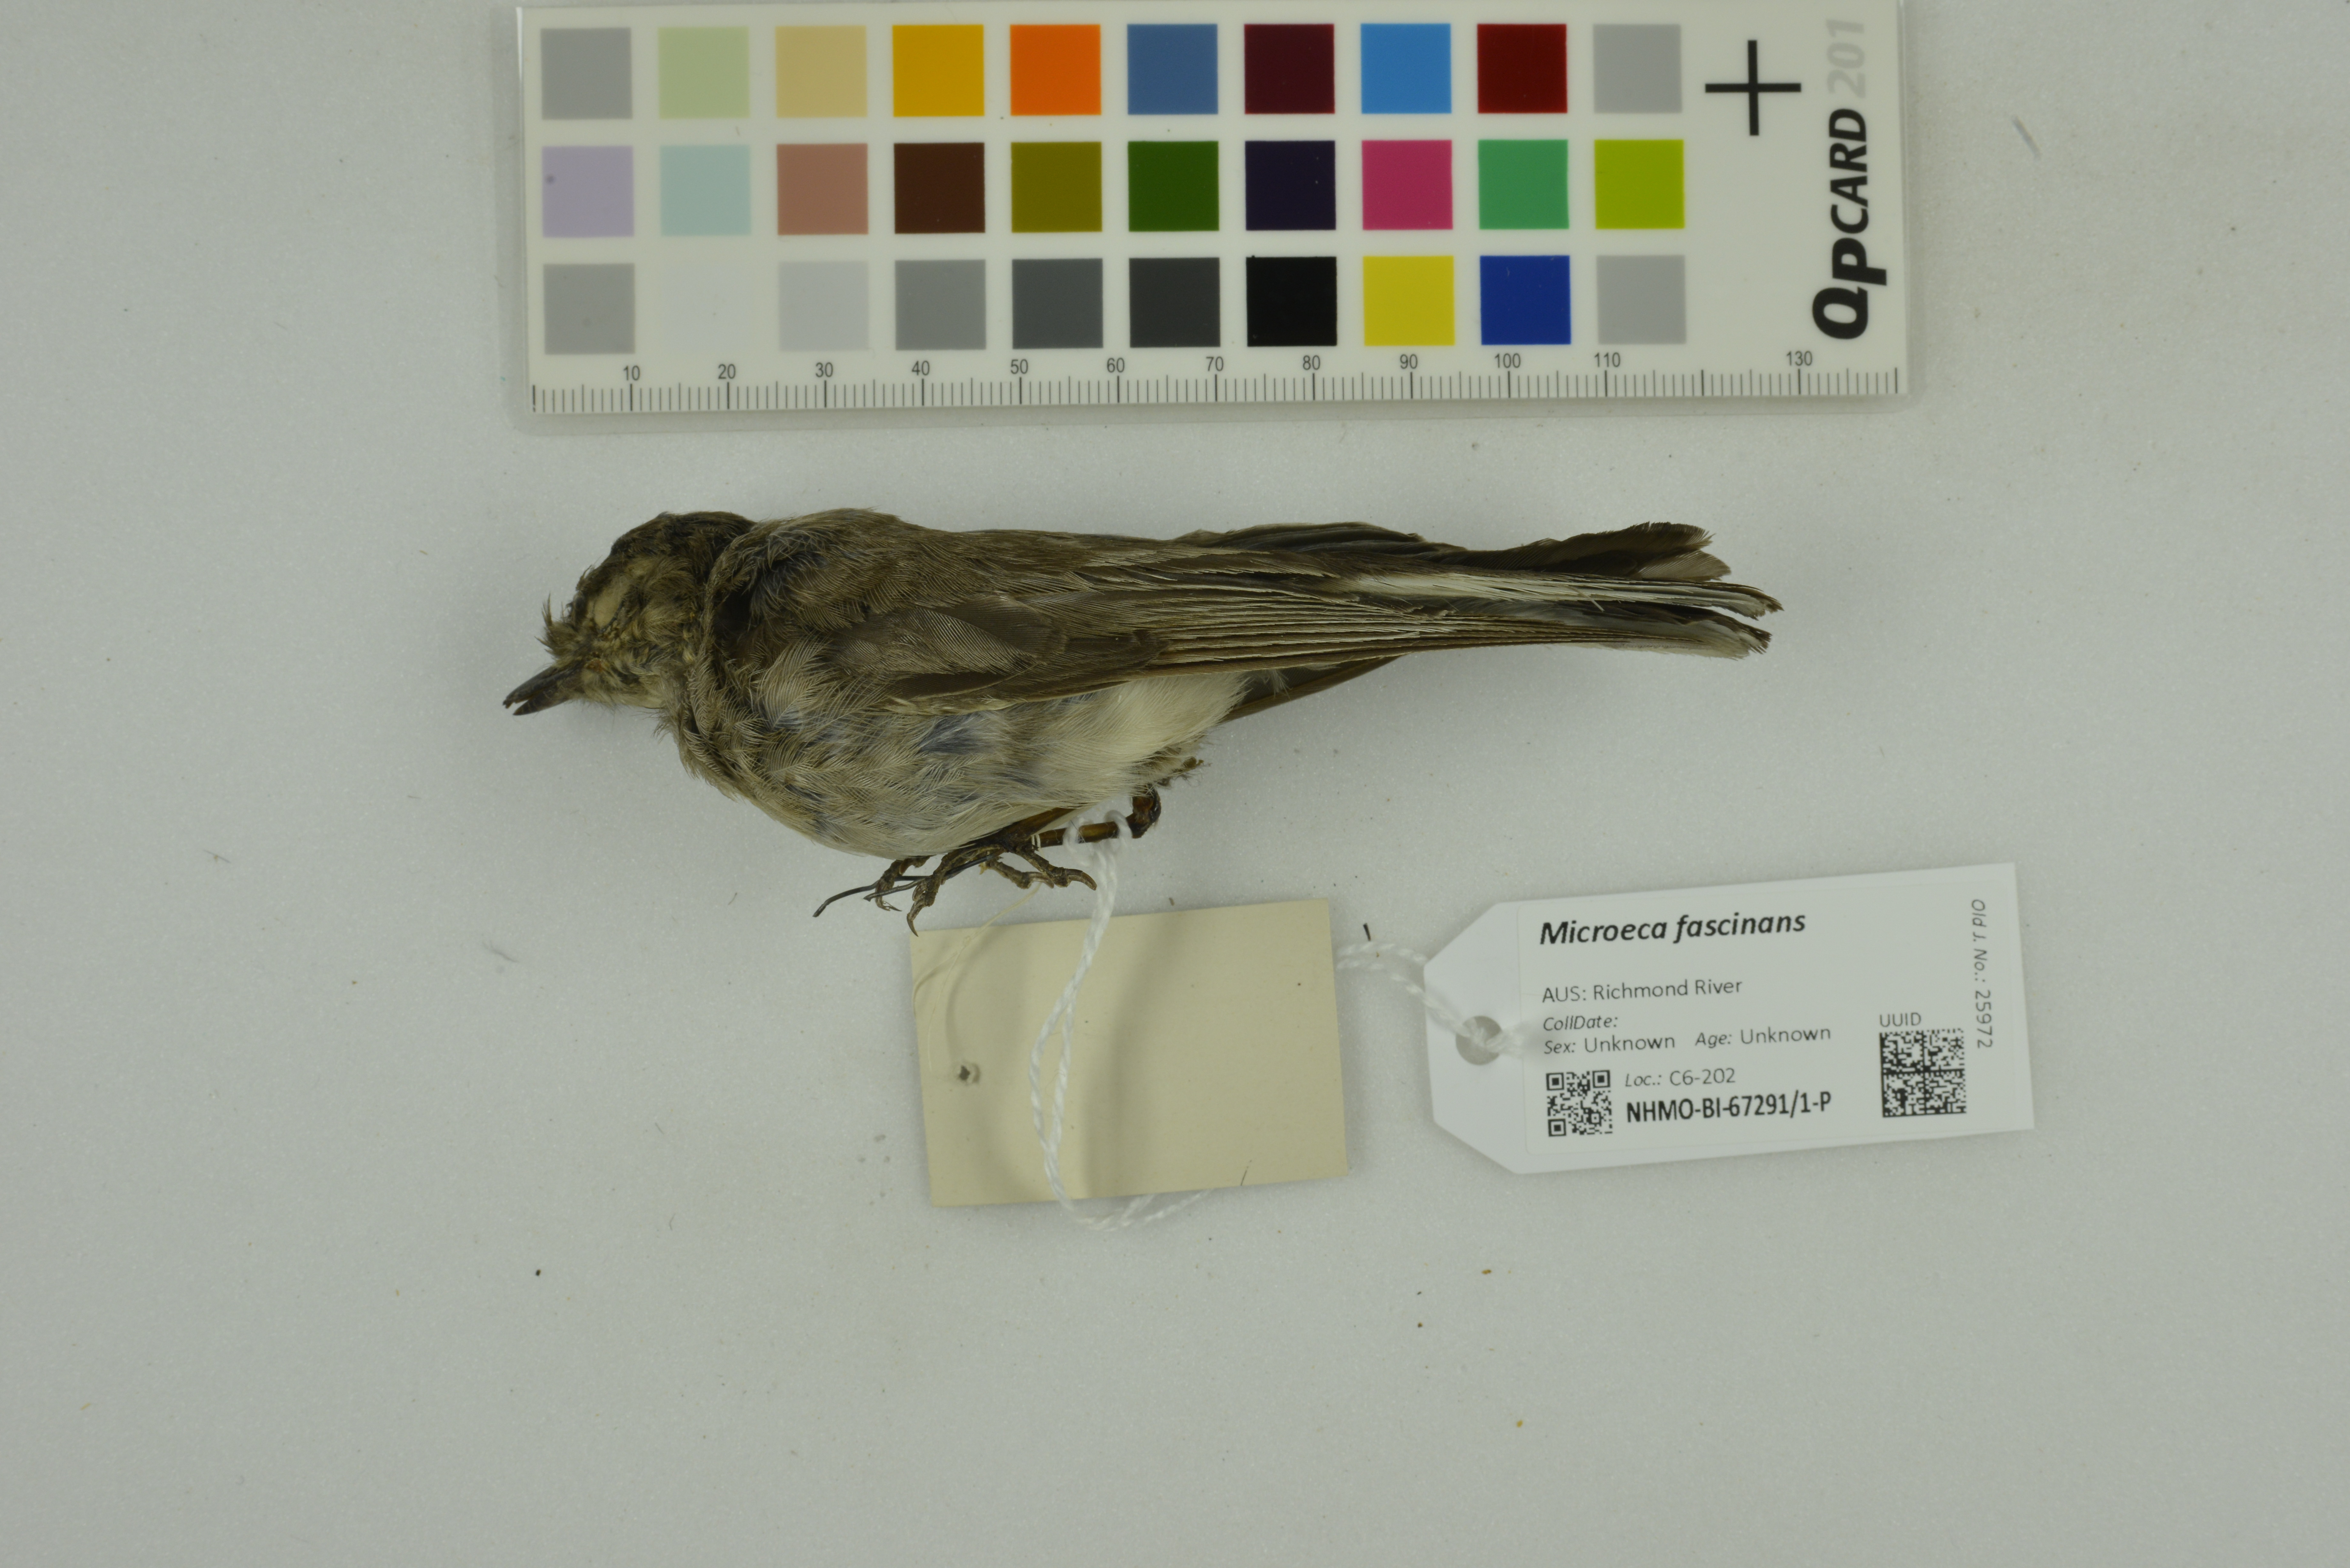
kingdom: Animalia
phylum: Chordata
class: Aves
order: Passeriformes
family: Petroicidae
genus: Microeca
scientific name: Microeca fascinans
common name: Jacky winter
